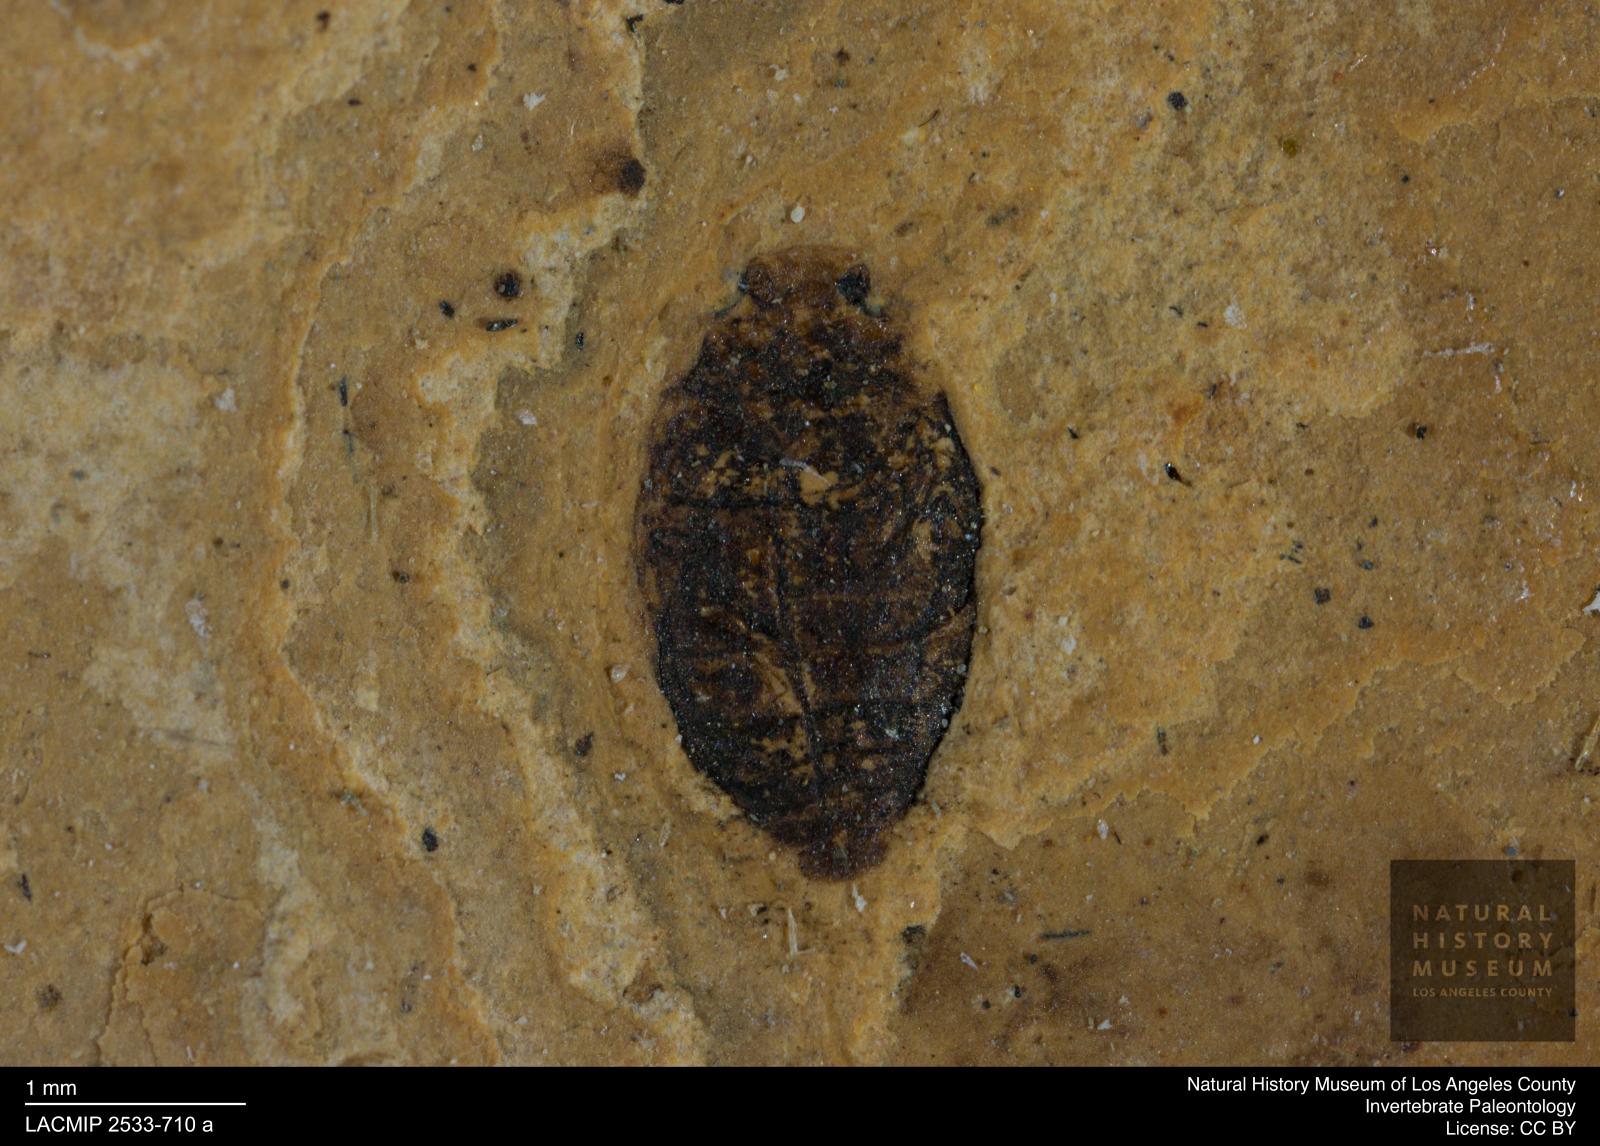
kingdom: Animalia
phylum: Arthropoda
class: Insecta
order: Coleoptera
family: Dytiscidae
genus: Oreodytes
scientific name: Oreodytes cryptolineatus
